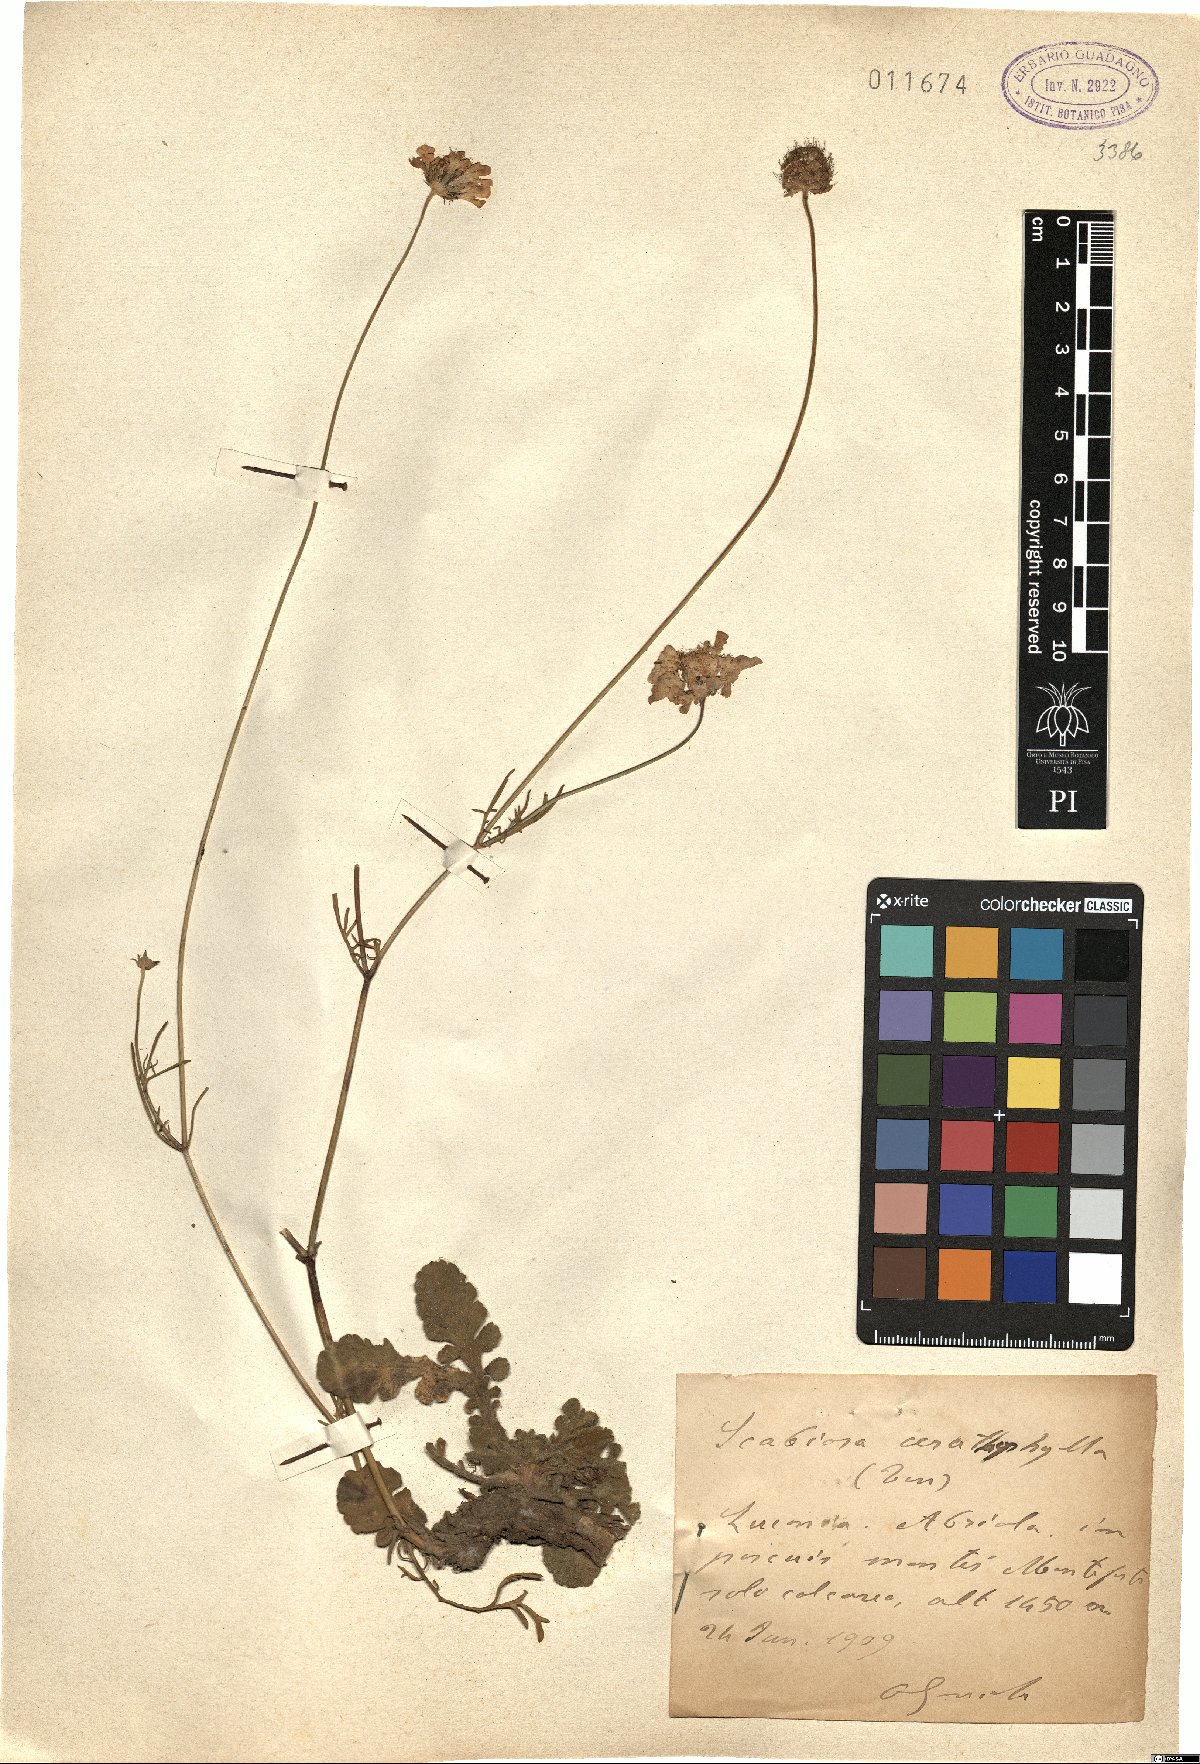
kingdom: Plantae
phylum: Tracheophyta
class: Magnoliopsida
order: Dipsacales
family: Caprifoliaceae
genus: Scabiosa
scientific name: Scabiosa triandra
